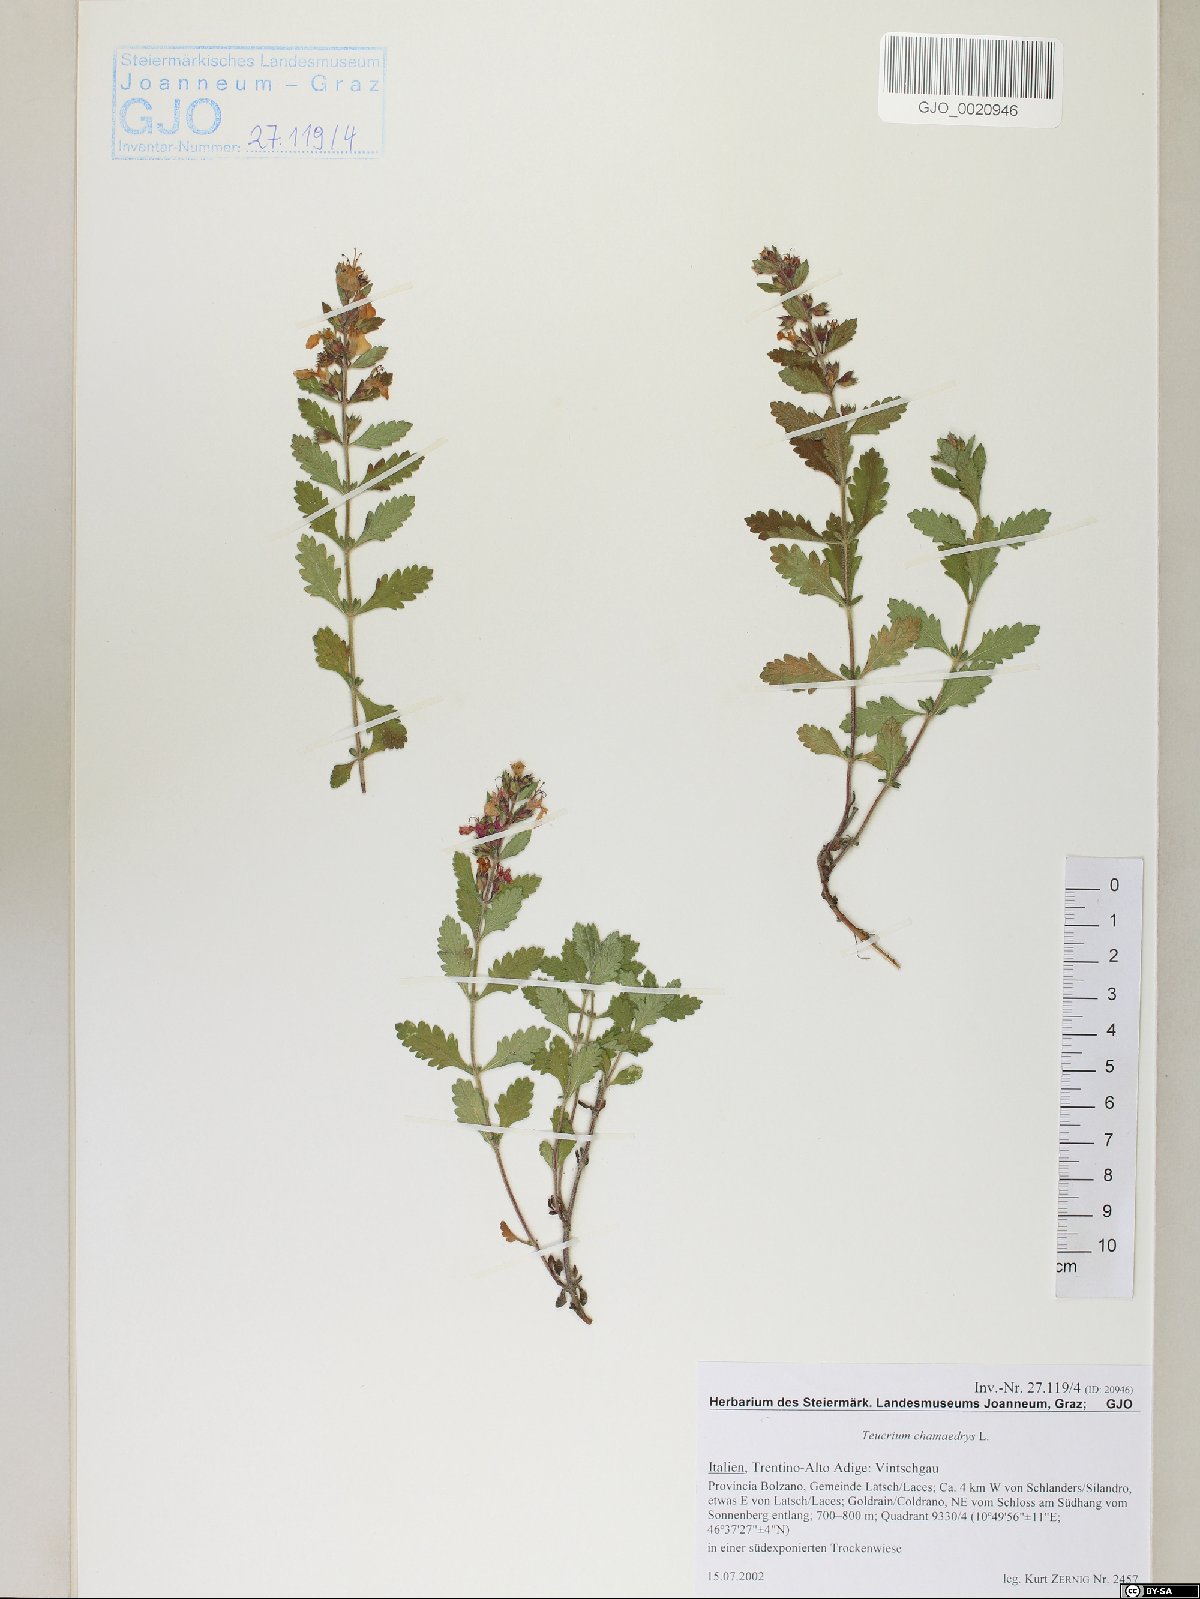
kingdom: Plantae
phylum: Tracheophyta
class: Magnoliopsida
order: Lamiales
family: Lamiaceae
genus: Teucrium
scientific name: Teucrium chamaedrys
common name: Wall germander
